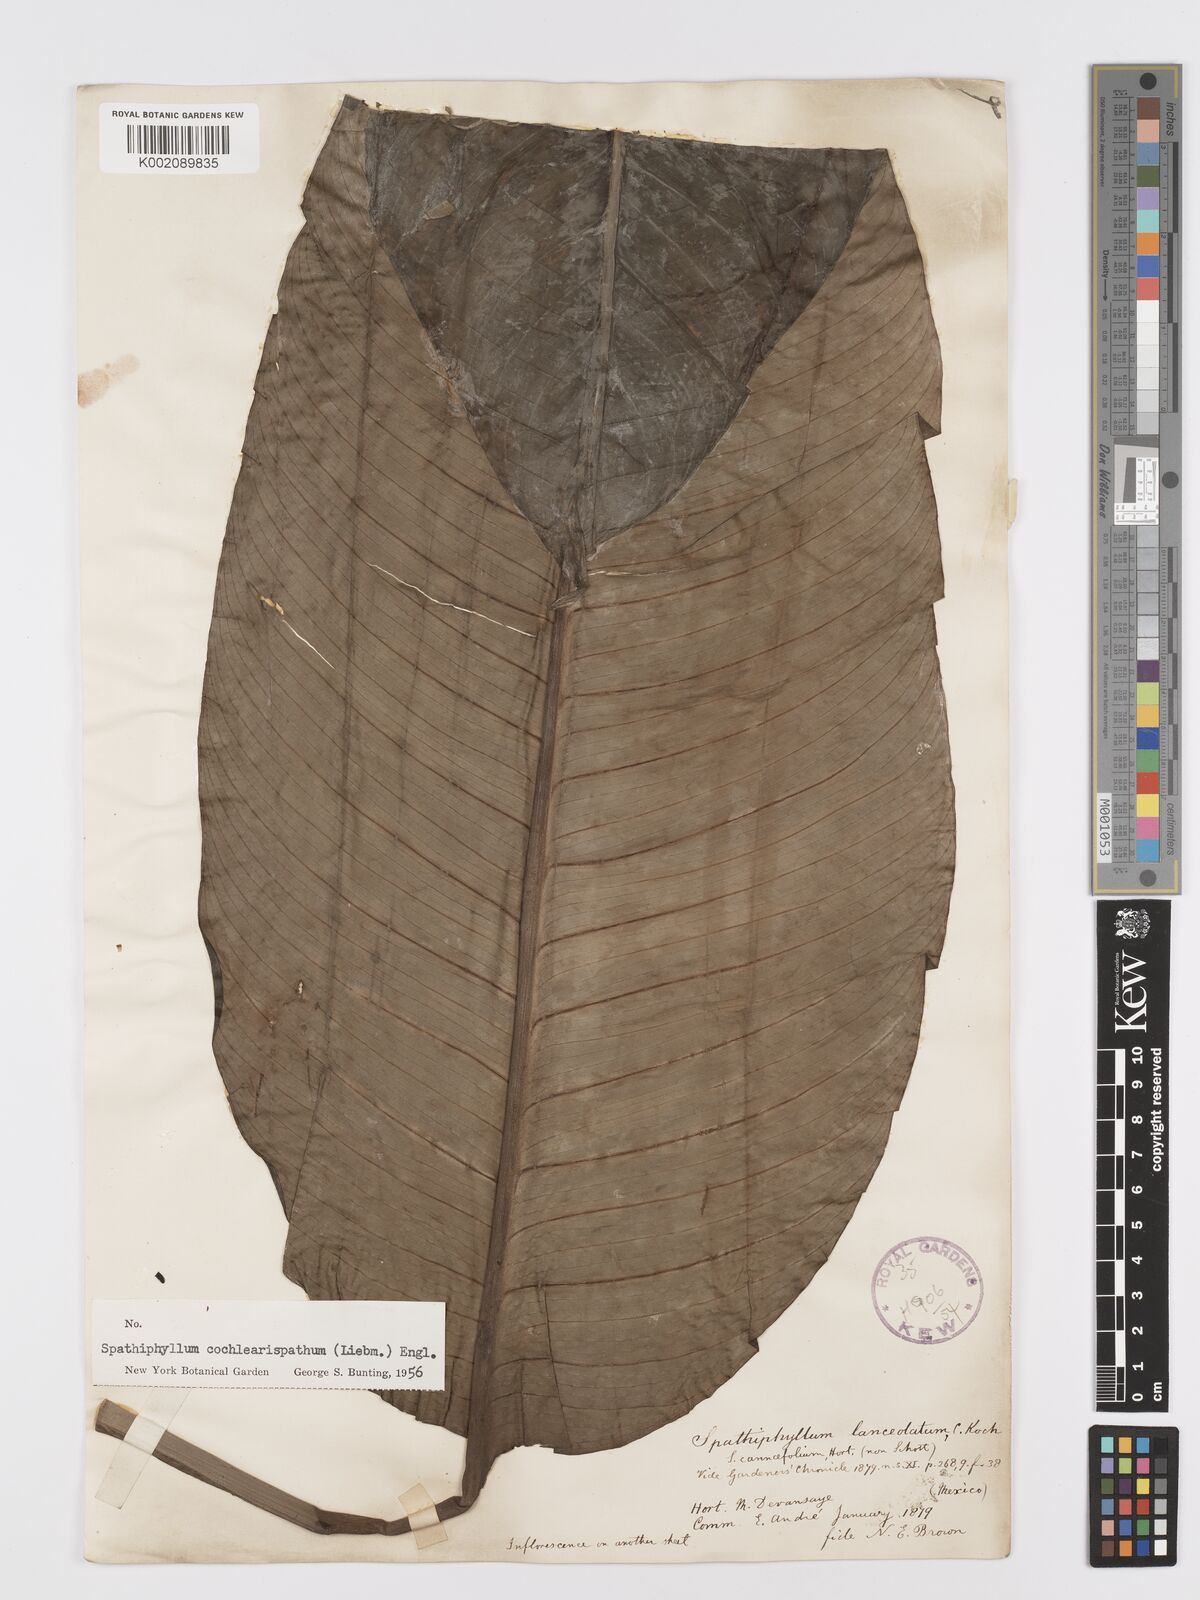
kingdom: Plantae
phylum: Tracheophyta
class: Liliopsida
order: Alismatales
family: Araceae
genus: Spathiphyllum
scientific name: Spathiphyllum cochlearispathum
